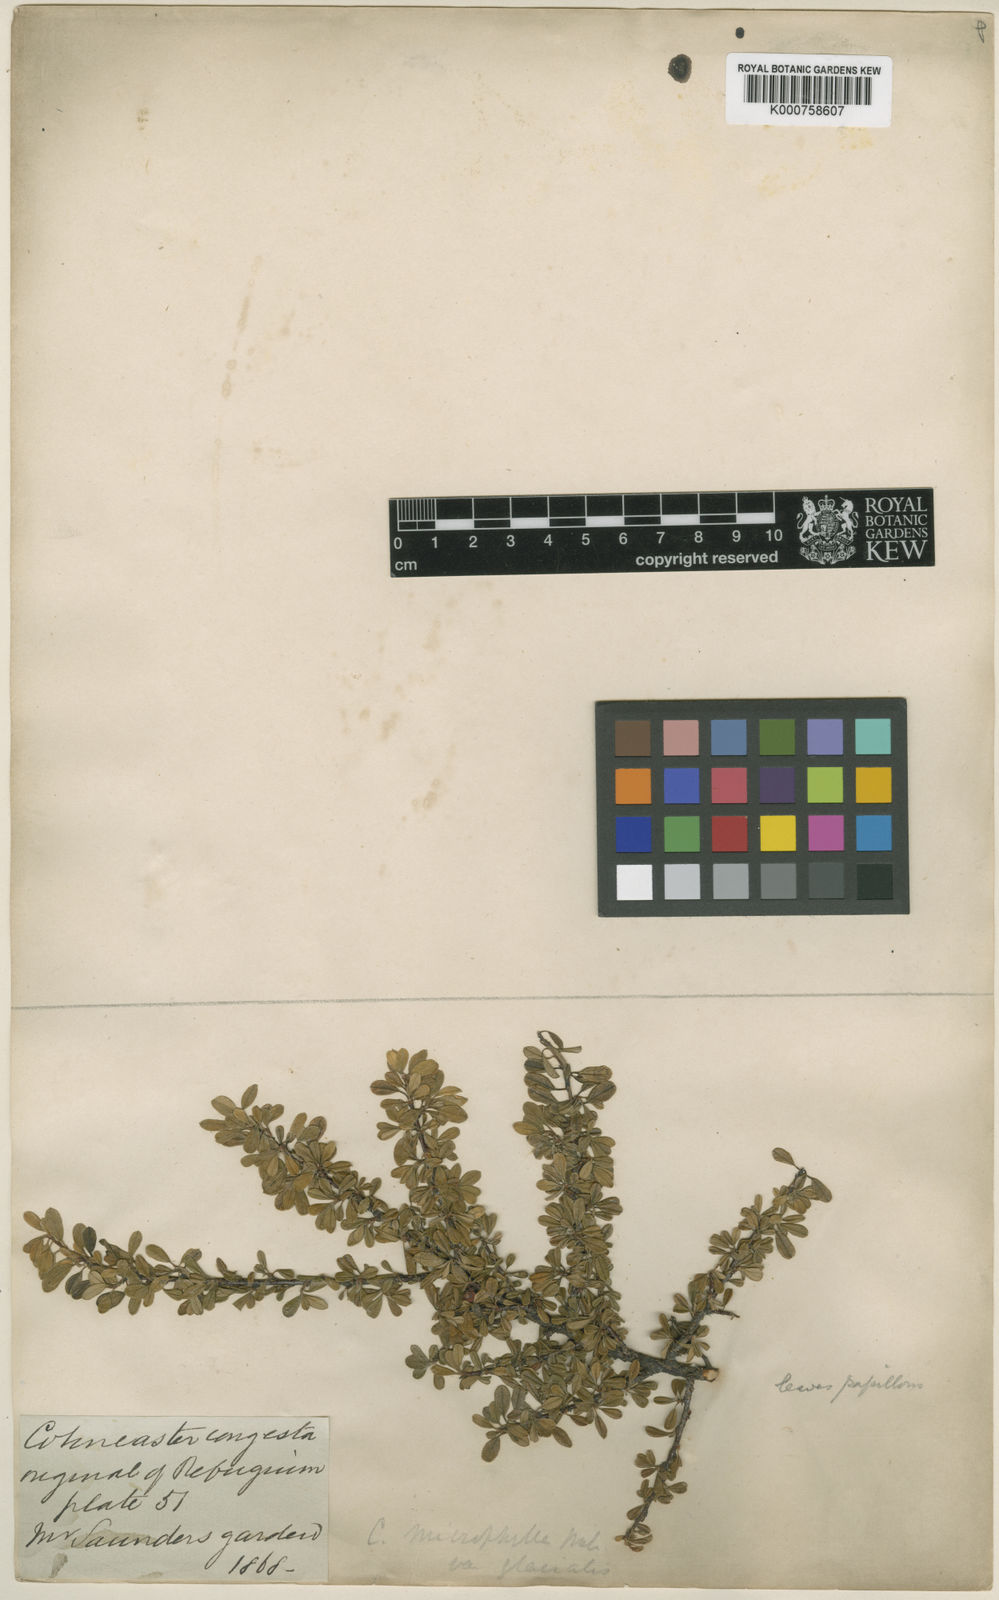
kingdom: Plantae
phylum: Tracheophyta
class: Magnoliopsida
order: Rosales
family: Rosaceae
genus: Cotoneaster
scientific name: Cotoneaster conspicuus
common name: Tibetan cotoneaster
